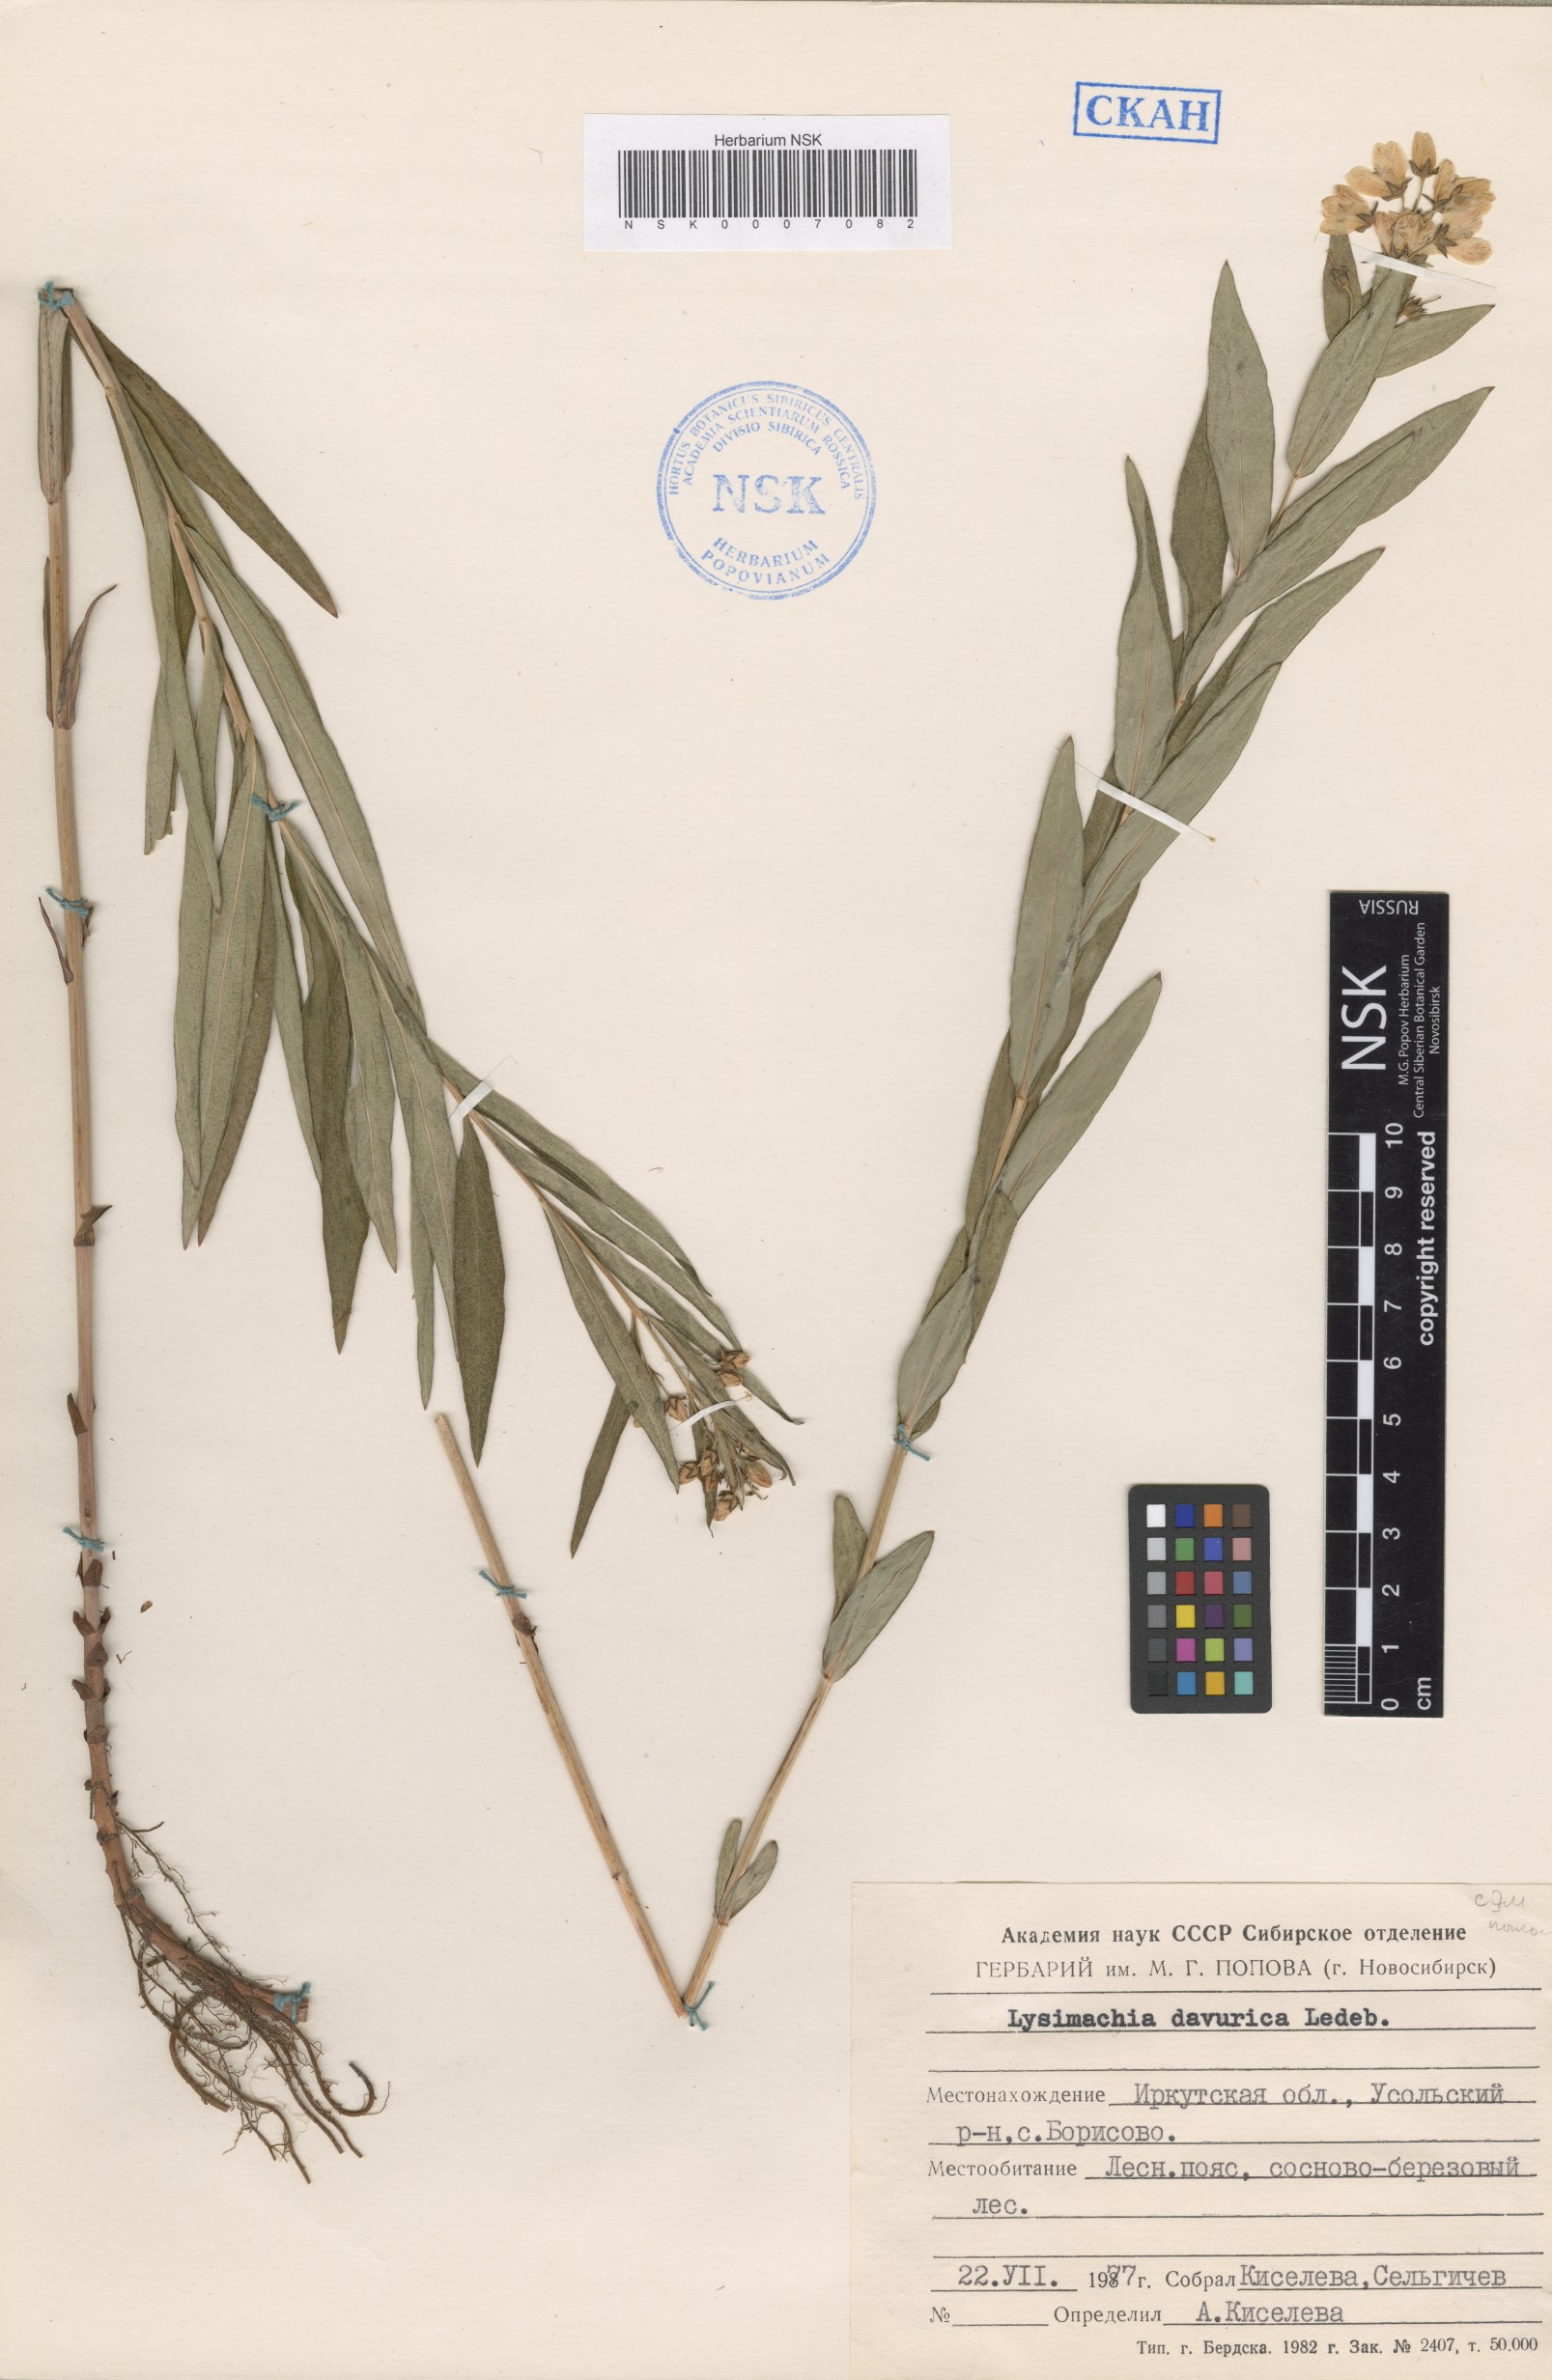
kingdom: Plantae
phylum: Tracheophyta
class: Magnoliopsida
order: Ericales
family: Primulaceae
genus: Lysimachia
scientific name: Lysimachia davurica
